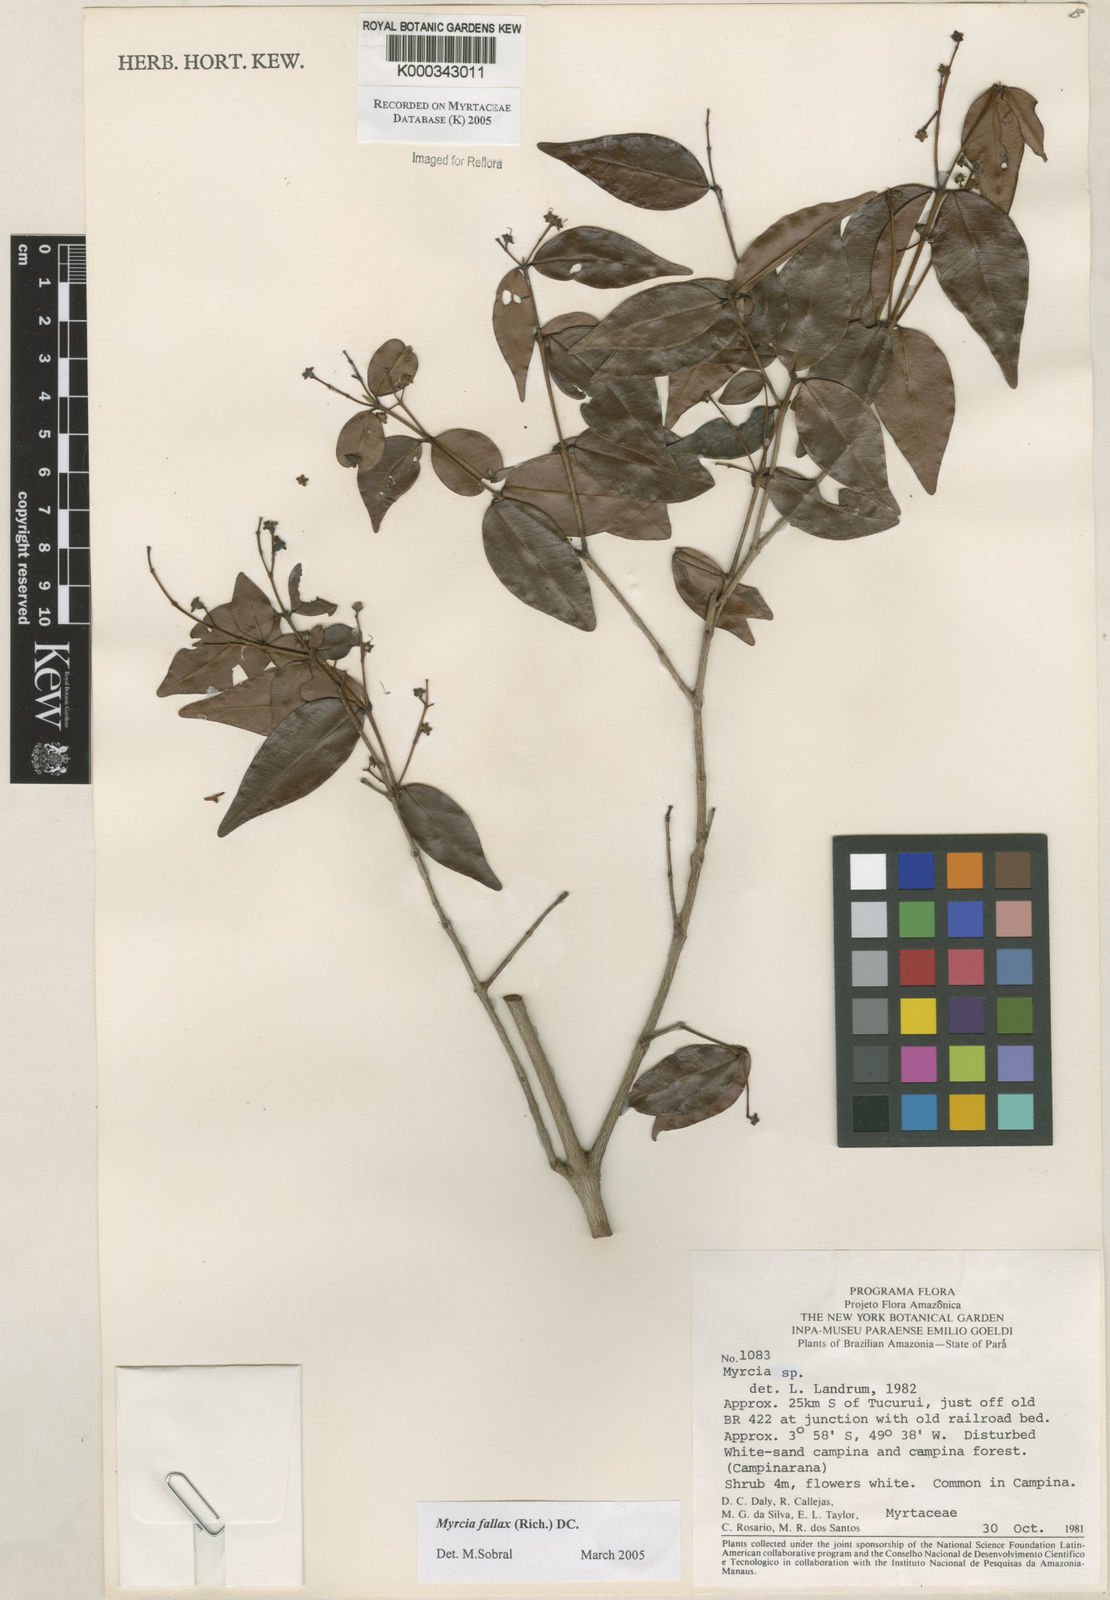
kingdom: Plantae
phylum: Tracheophyta
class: Magnoliopsida
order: Myrtales
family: Myrtaceae
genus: Myrcia
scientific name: Myrcia splendens
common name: Surinam cherry
